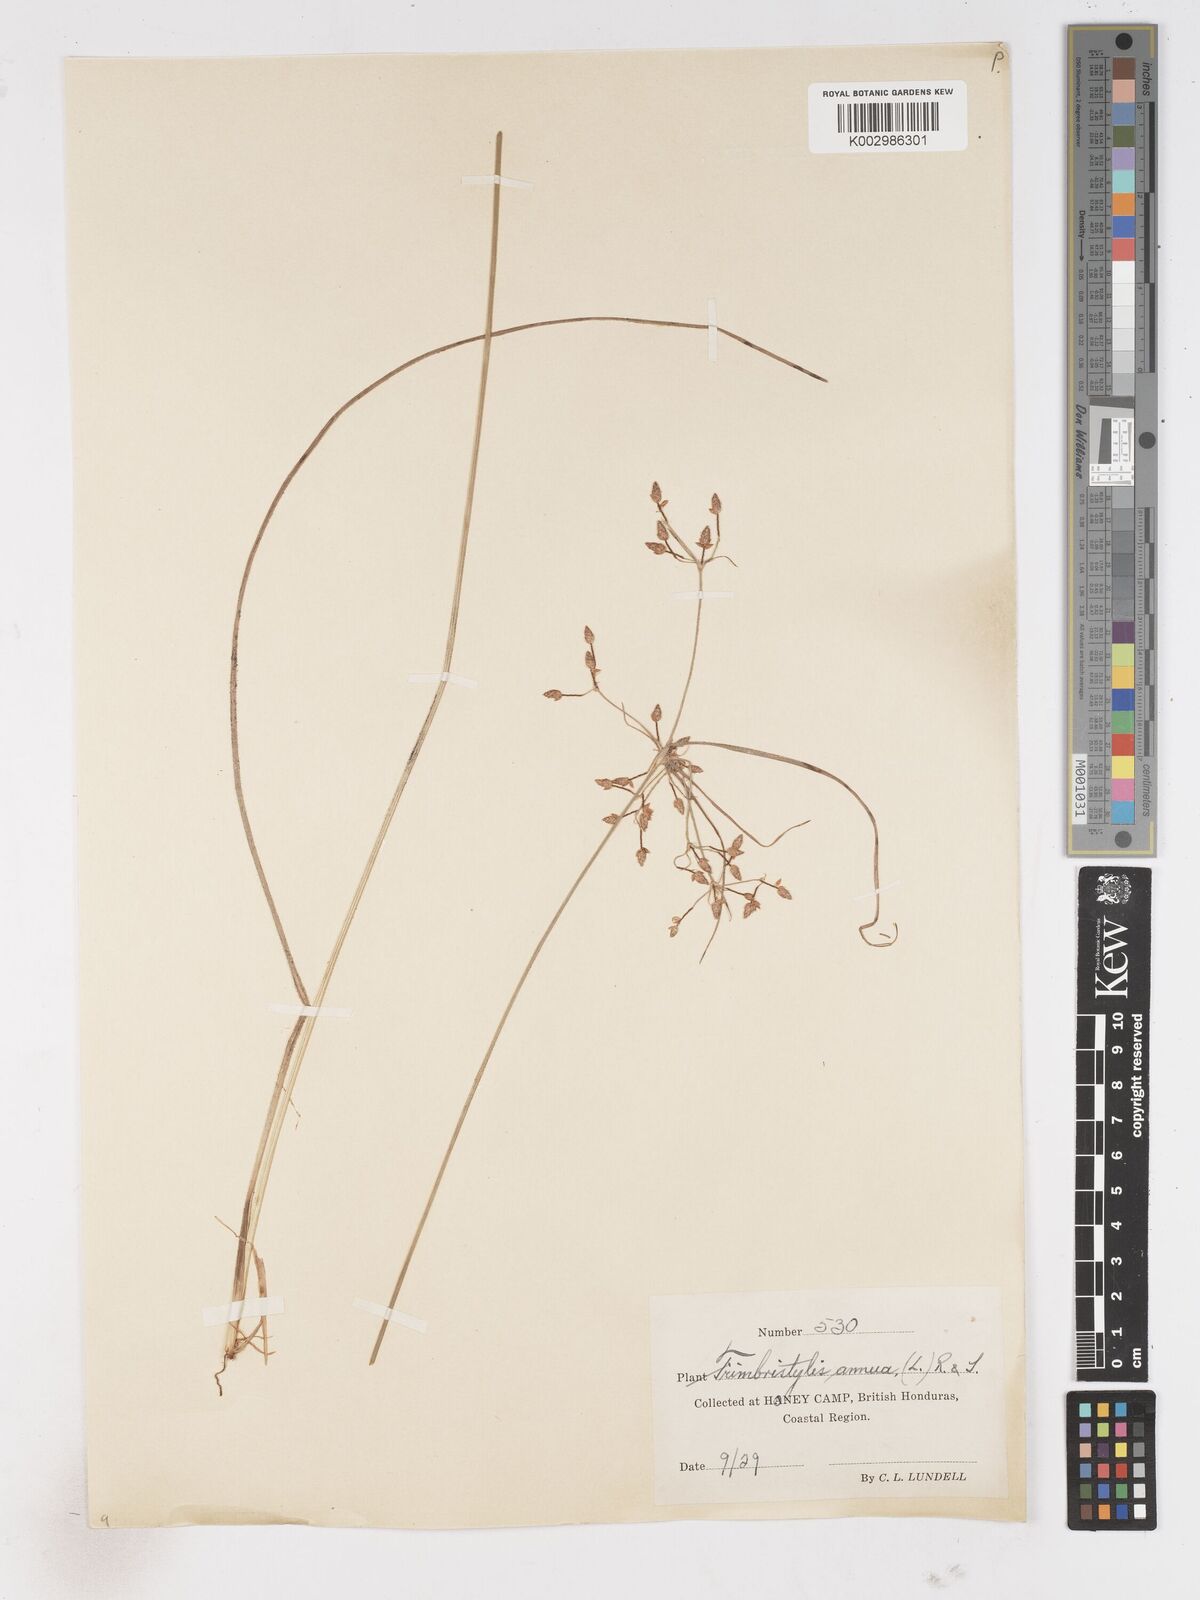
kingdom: Plantae
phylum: Tracheophyta
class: Liliopsida
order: Poales
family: Cyperaceae
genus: Fimbristylis
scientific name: Fimbristylis dichotoma
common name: Forked fimbry
